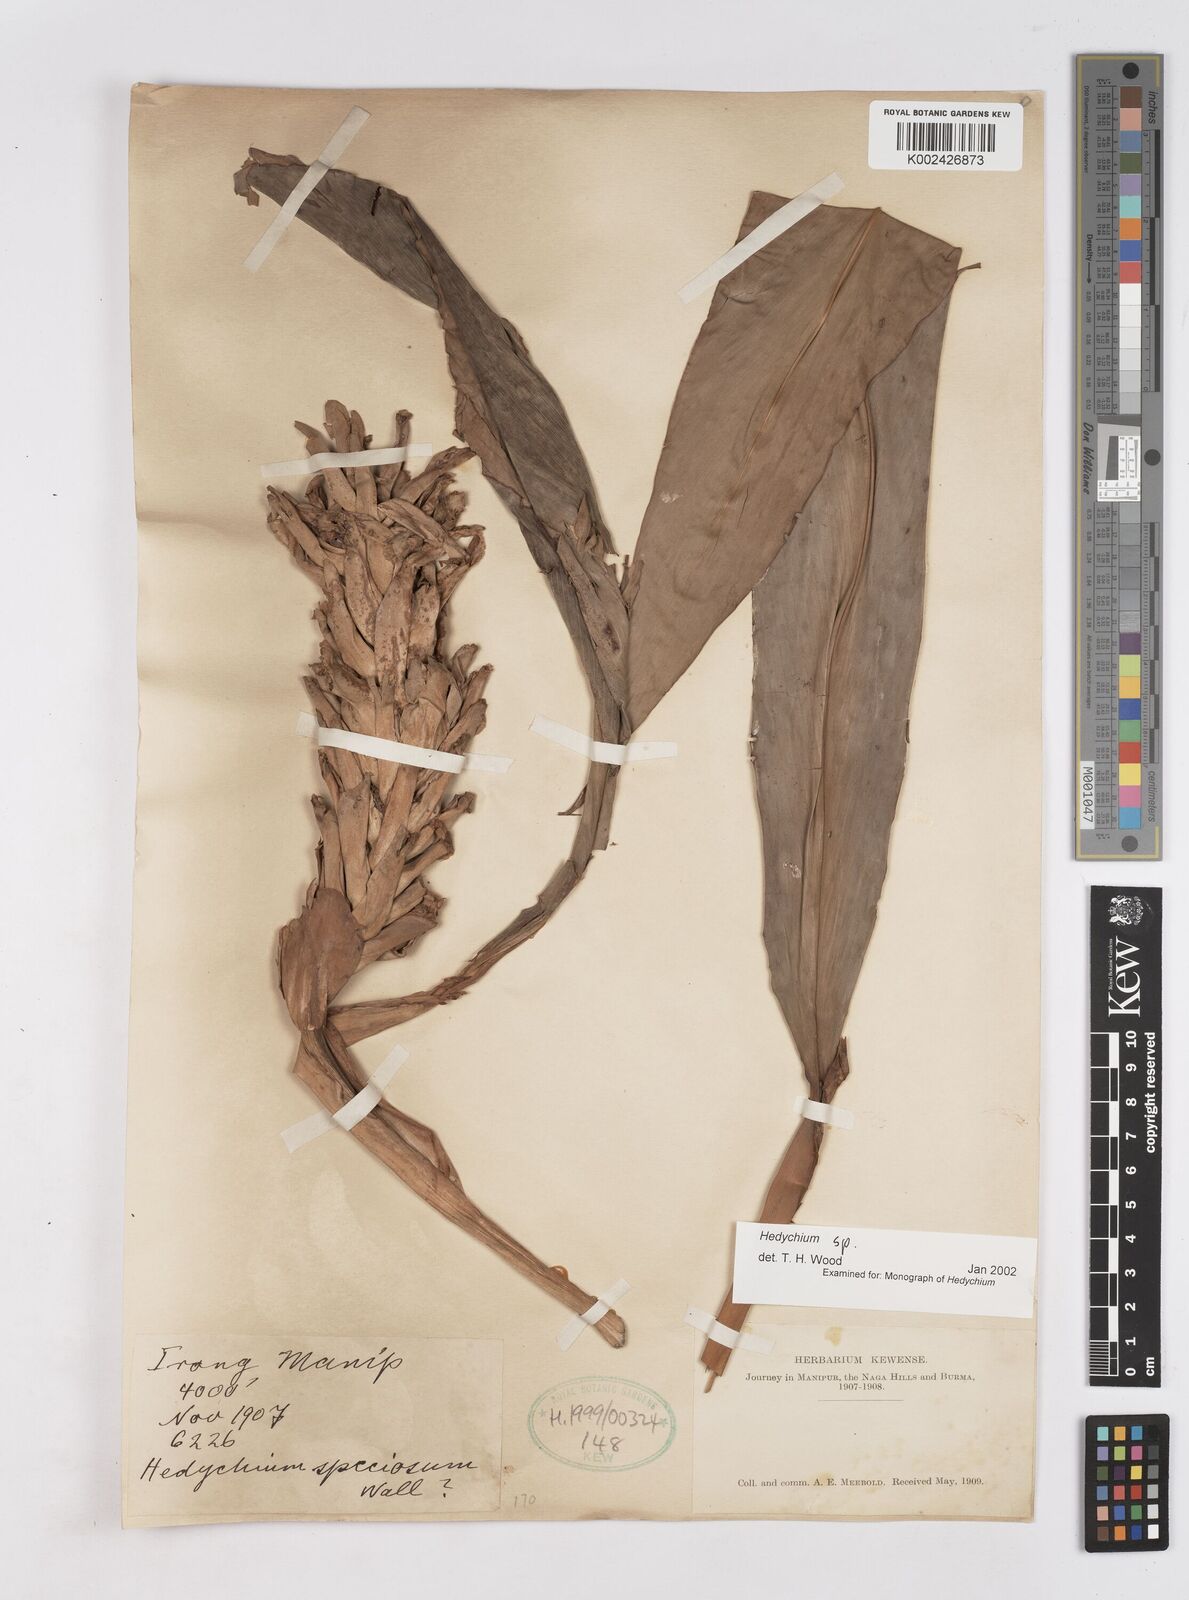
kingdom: Plantae
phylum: Tracheophyta
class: Liliopsida
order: Zingiberales
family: Zingiberaceae
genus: Hedychium
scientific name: Hedychium
